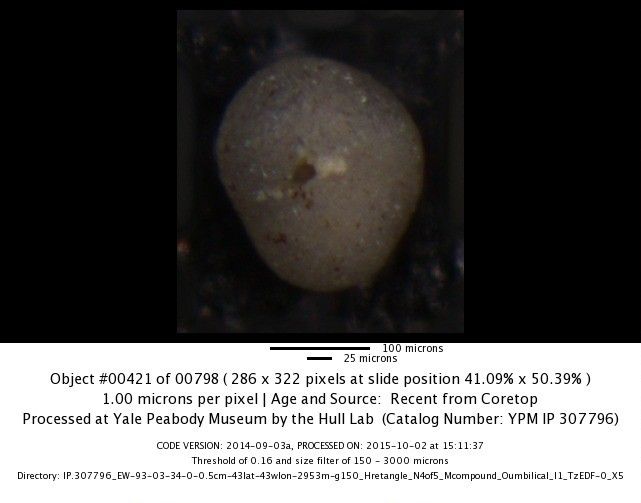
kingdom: Chromista
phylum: Foraminifera
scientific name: Foraminifera
